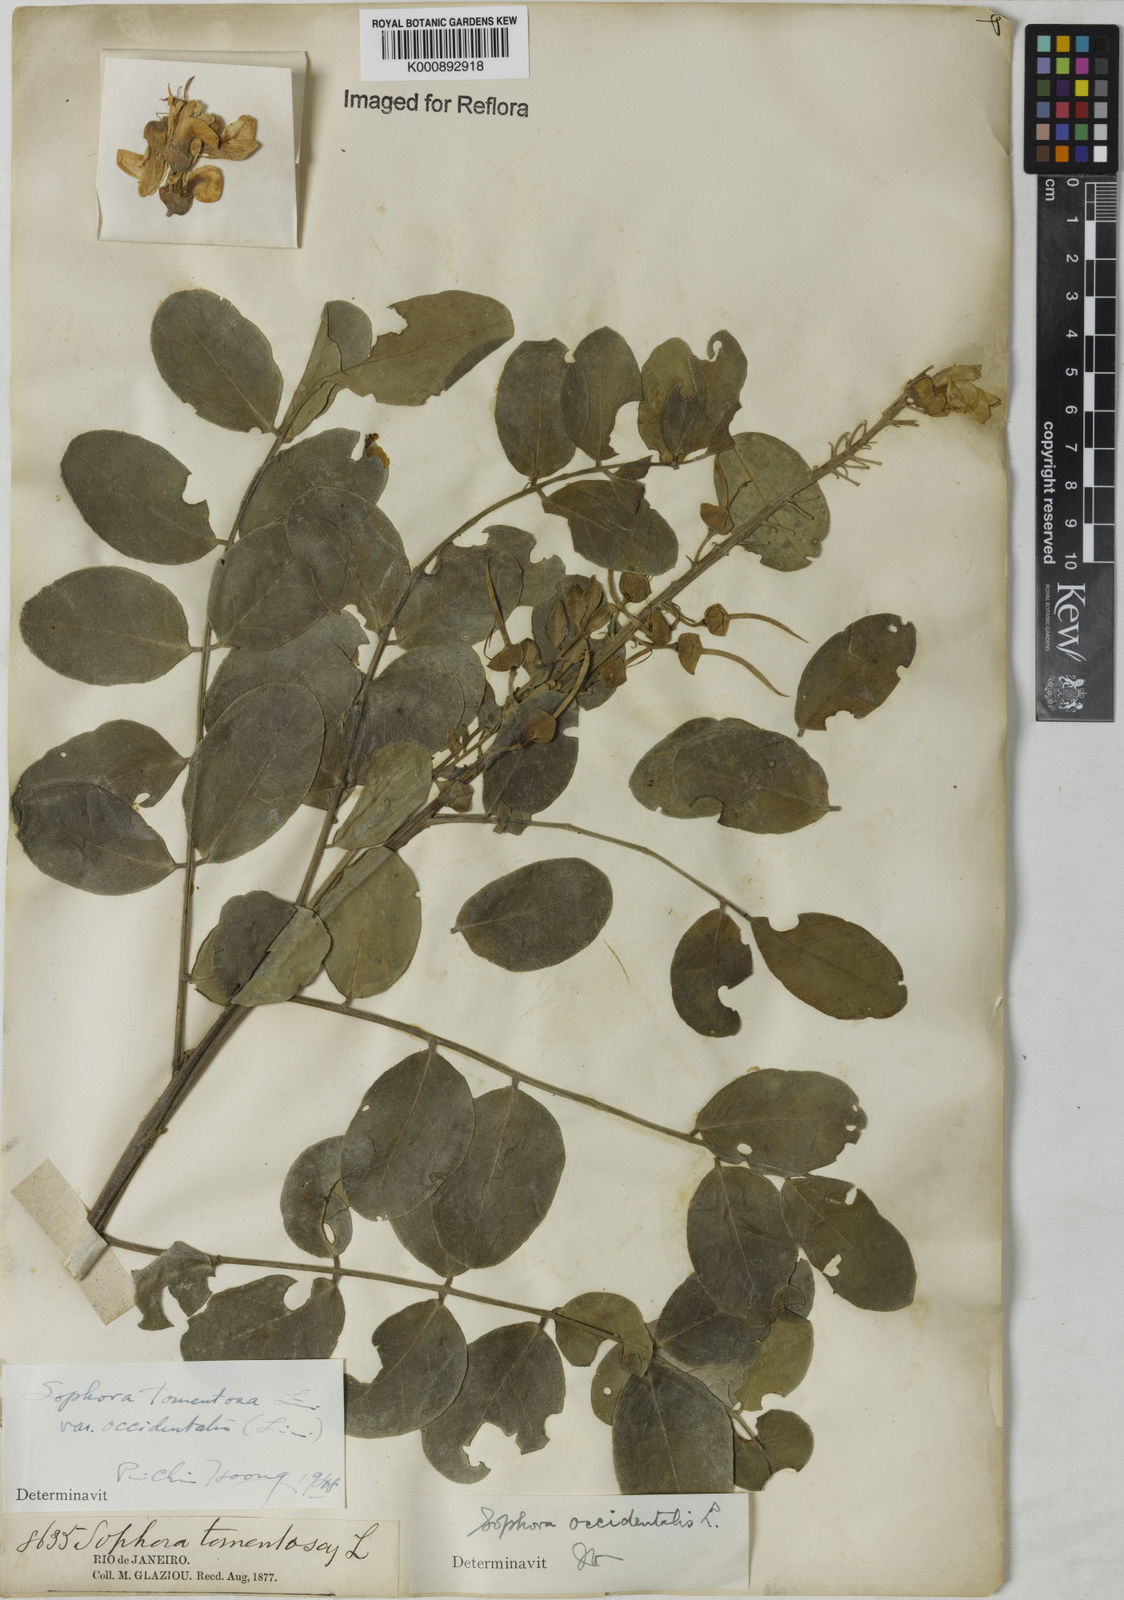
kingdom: Plantae
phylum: Tracheophyta
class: Magnoliopsida
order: Fabales
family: Fabaceae
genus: Sophora
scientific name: Sophora
